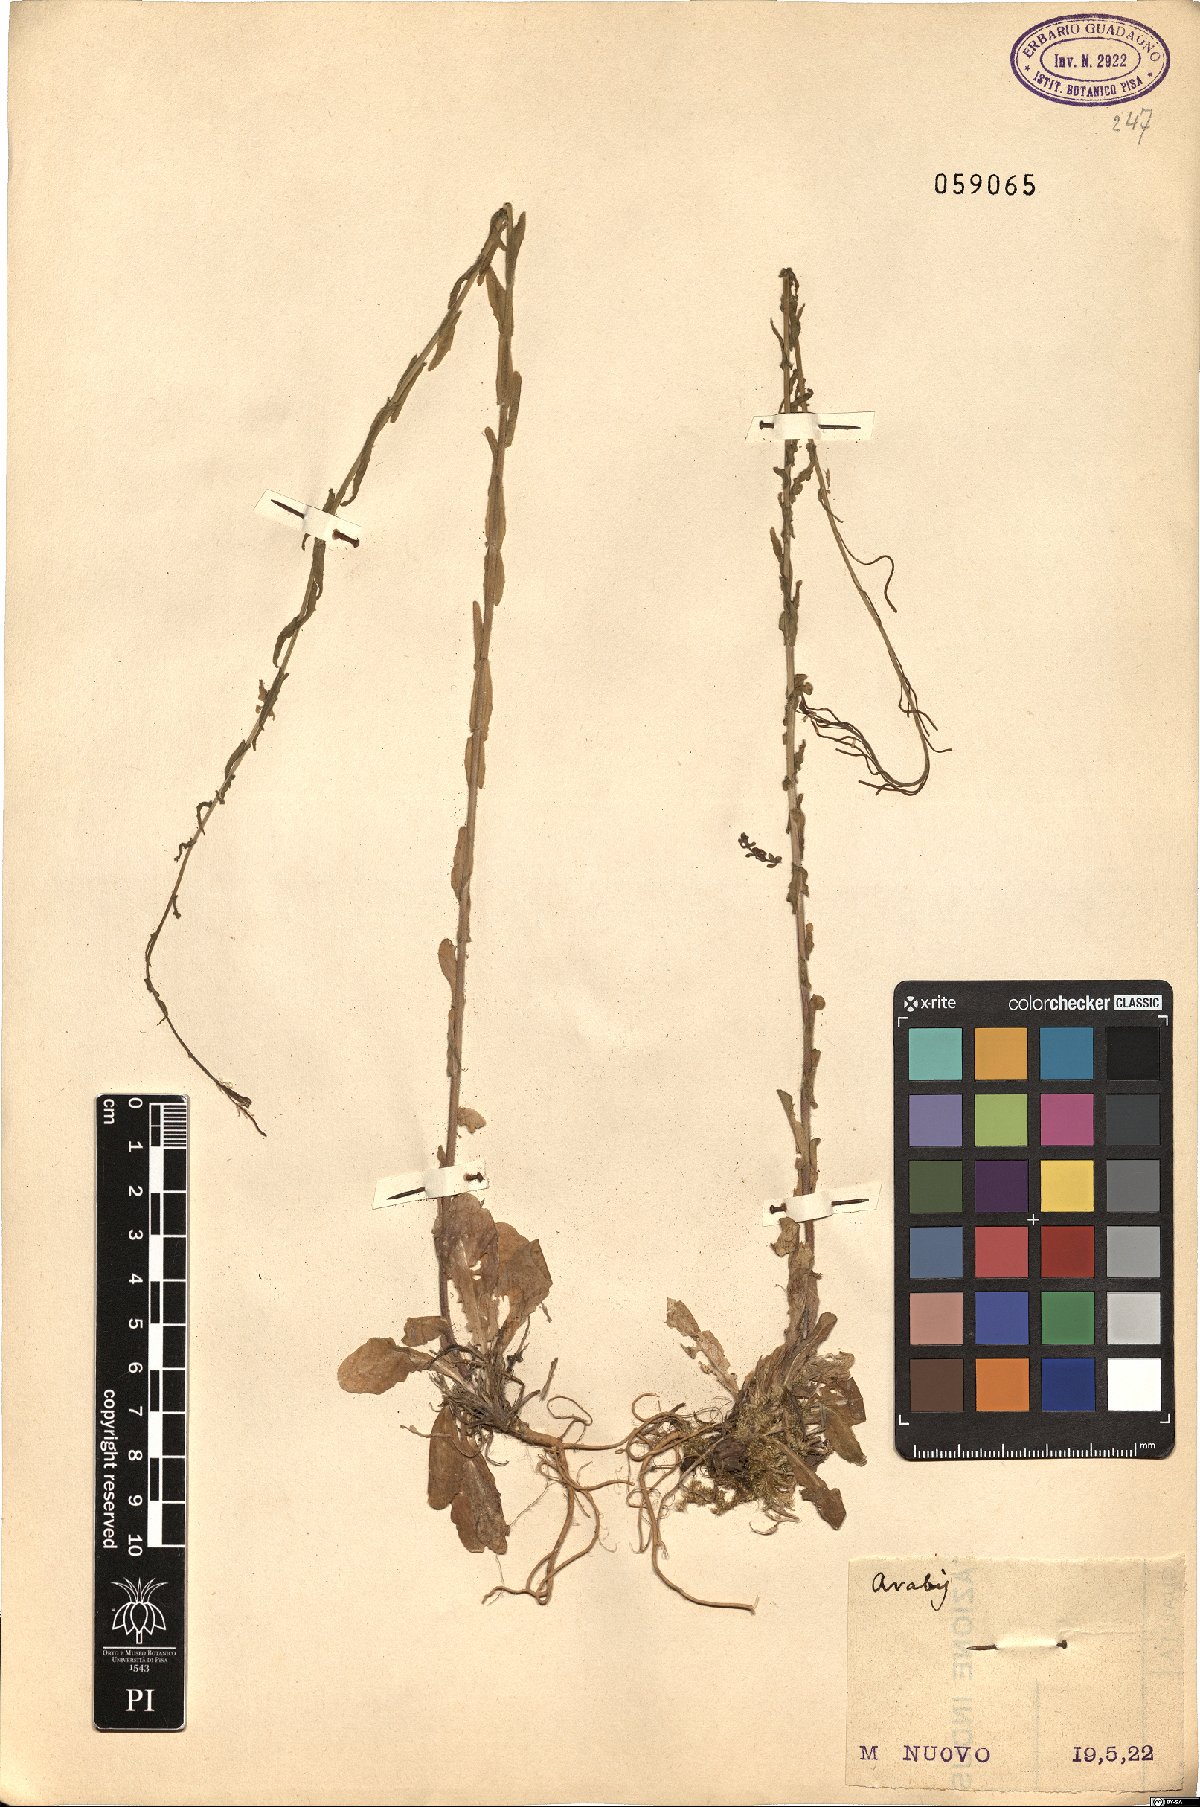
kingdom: Plantae
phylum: Tracheophyta
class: Magnoliopsida
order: Brassicales
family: Brassicaceae
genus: Arabis
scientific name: Arabis
